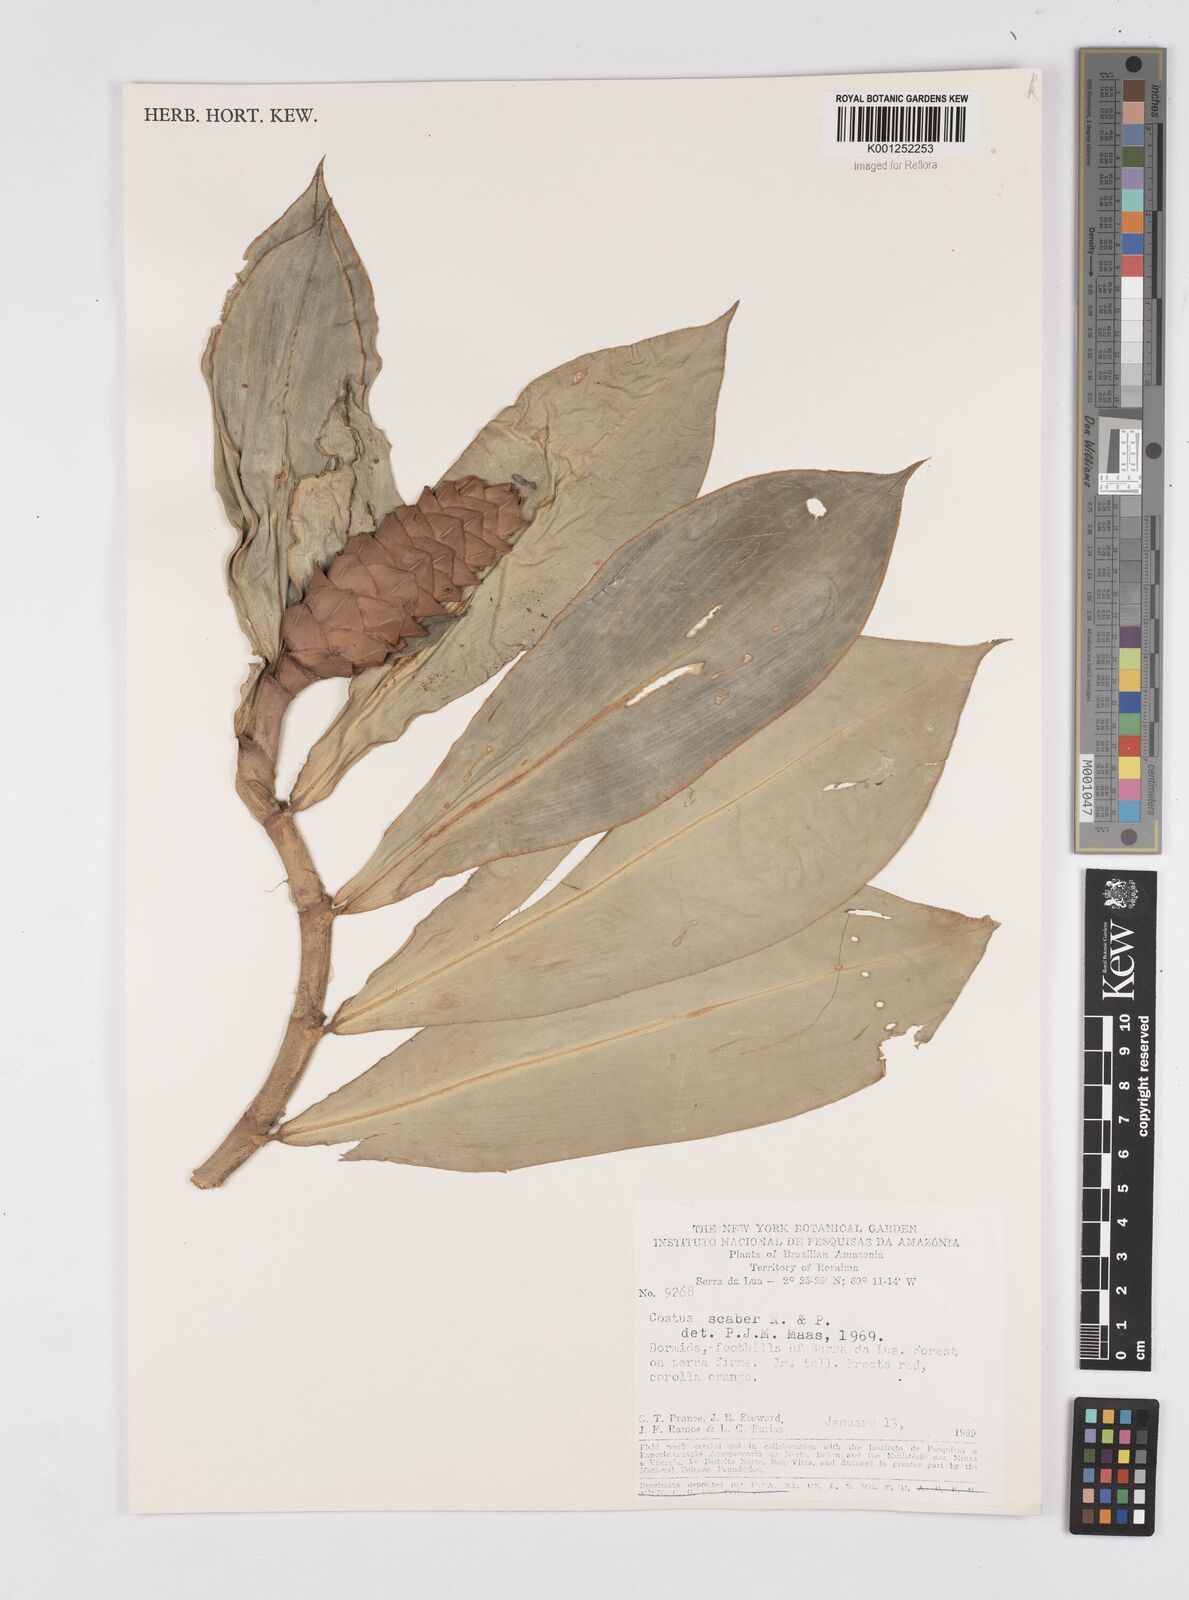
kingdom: Plantae
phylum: Tracheophyta
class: Liliopsida
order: Zingiberales
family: Costaceae
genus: Costus
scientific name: Costus scaber
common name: Spiral head ginger
